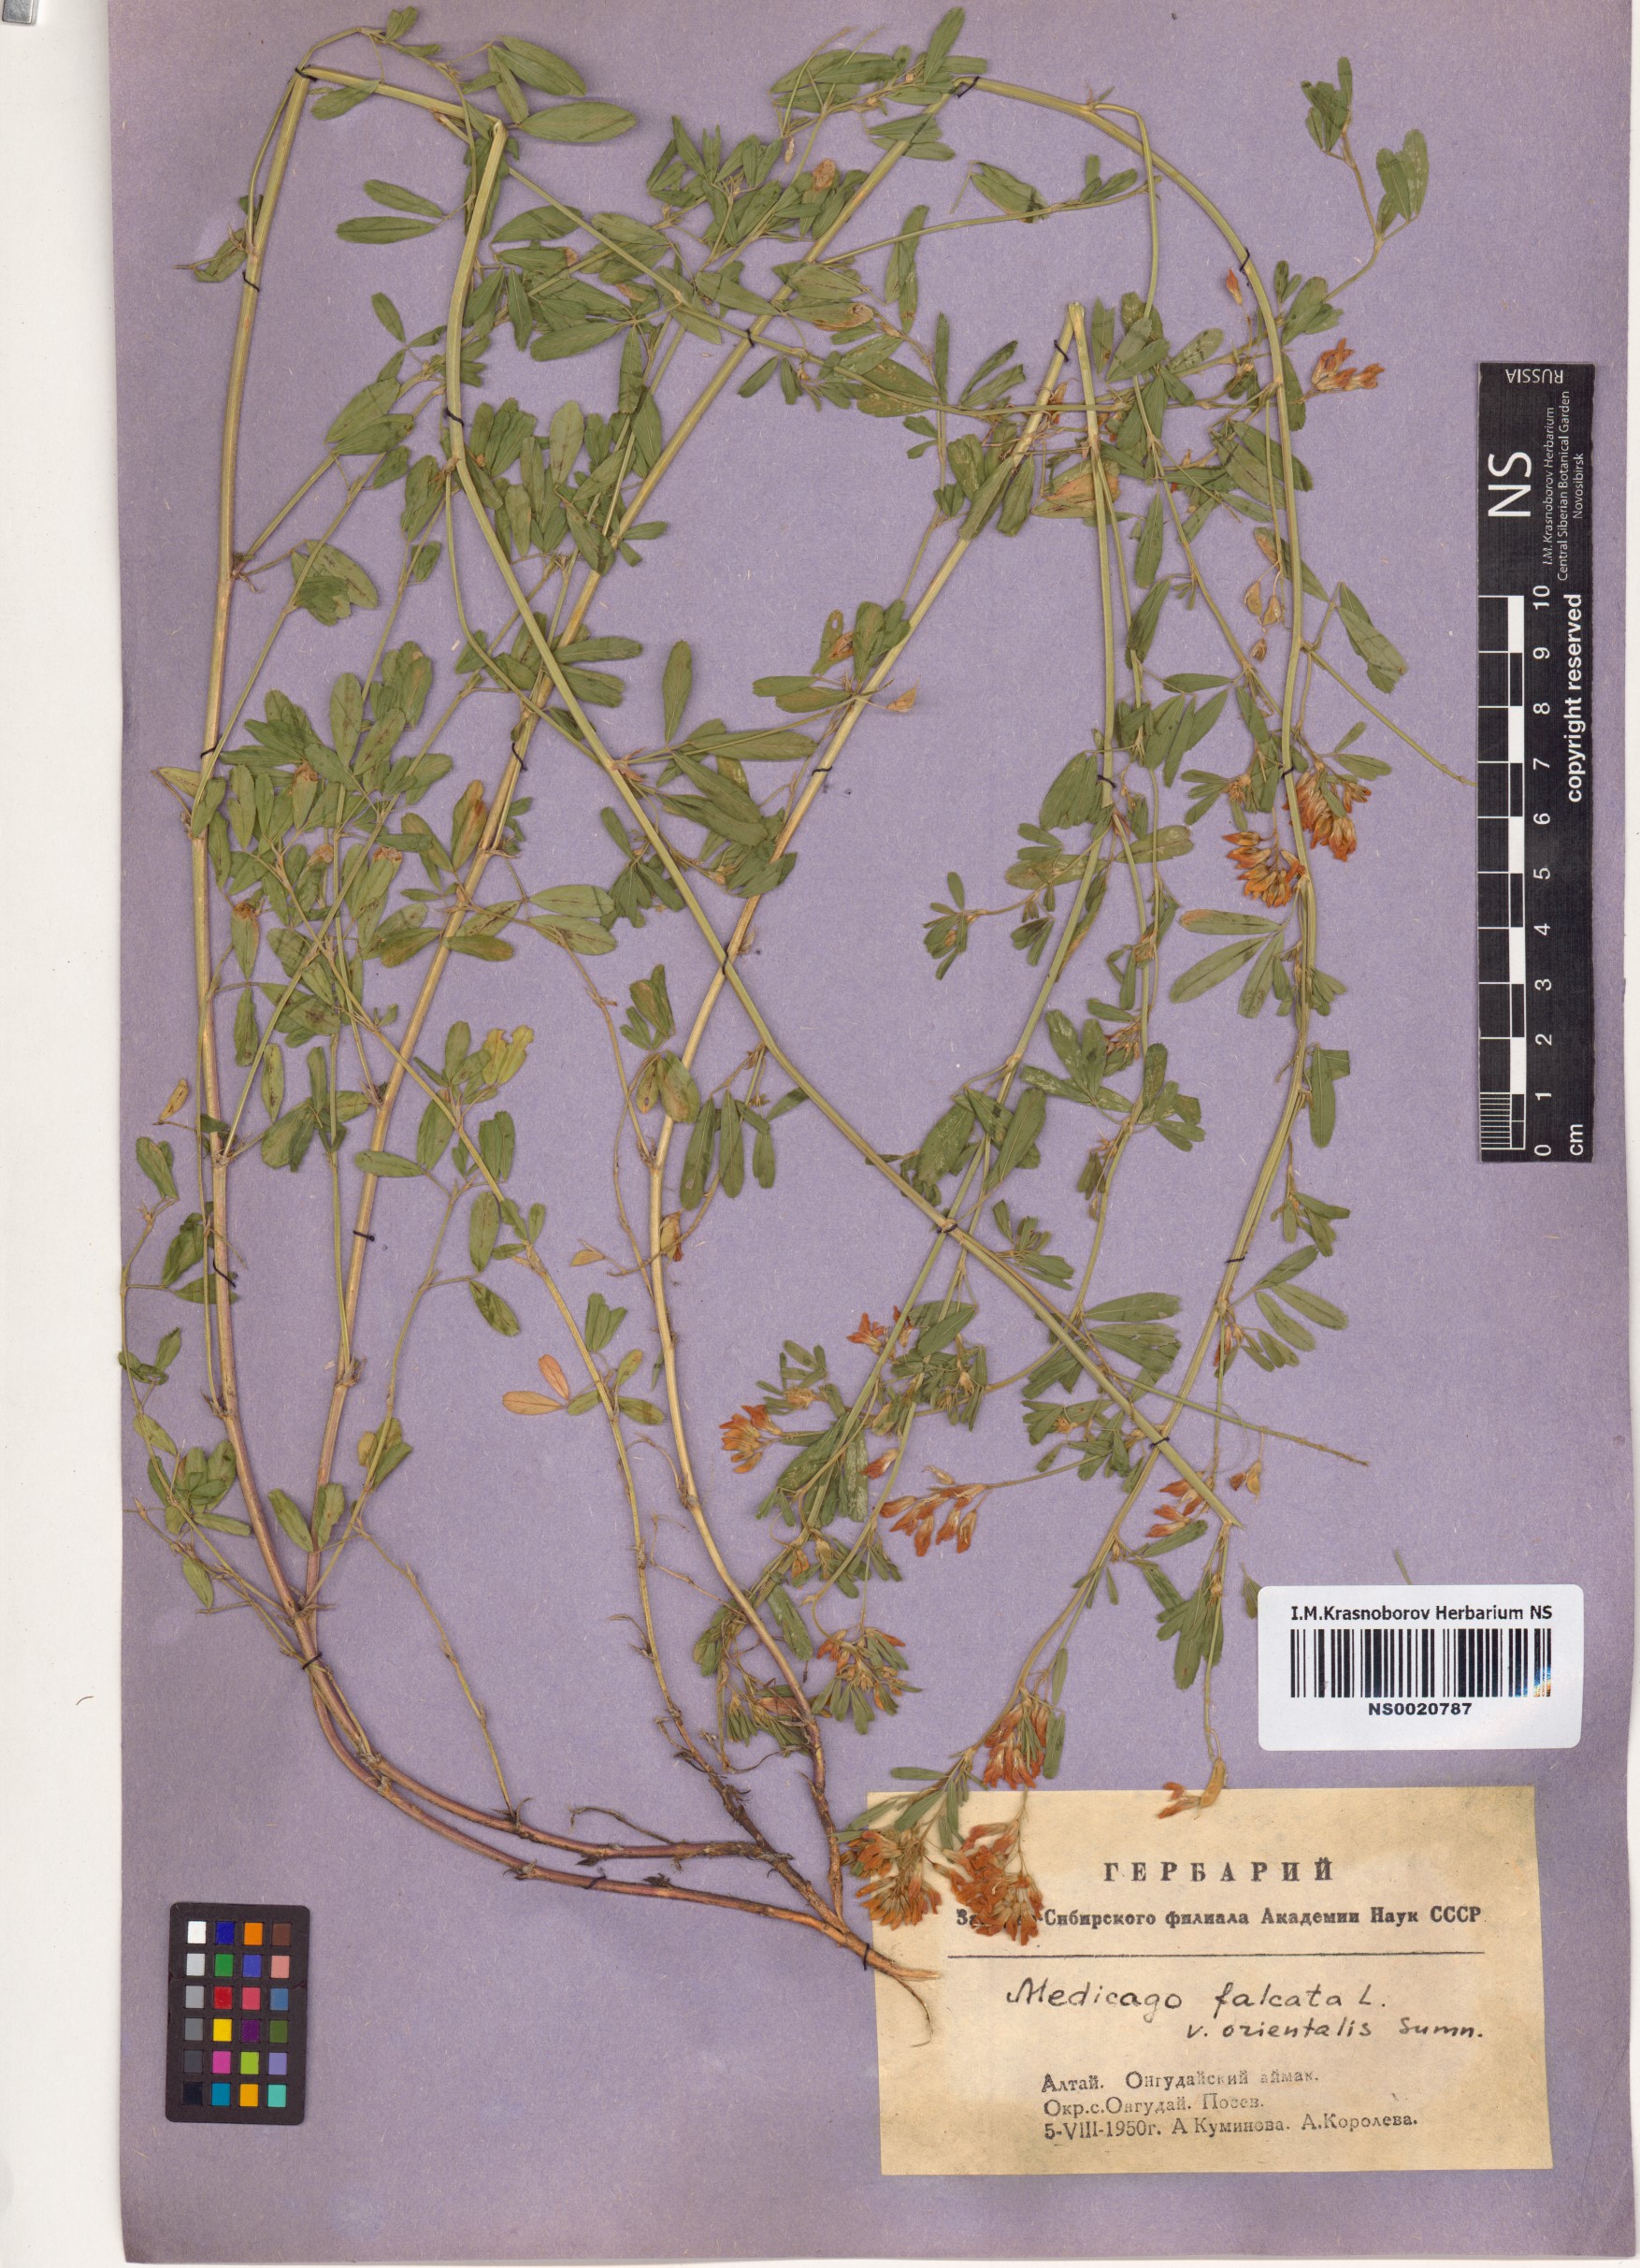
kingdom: Plantae
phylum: Tracheophyta
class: Magnoliopsida
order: Fabales
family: Fabaceae
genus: Medicago
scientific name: Medicago falcata
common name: Sickle medick
